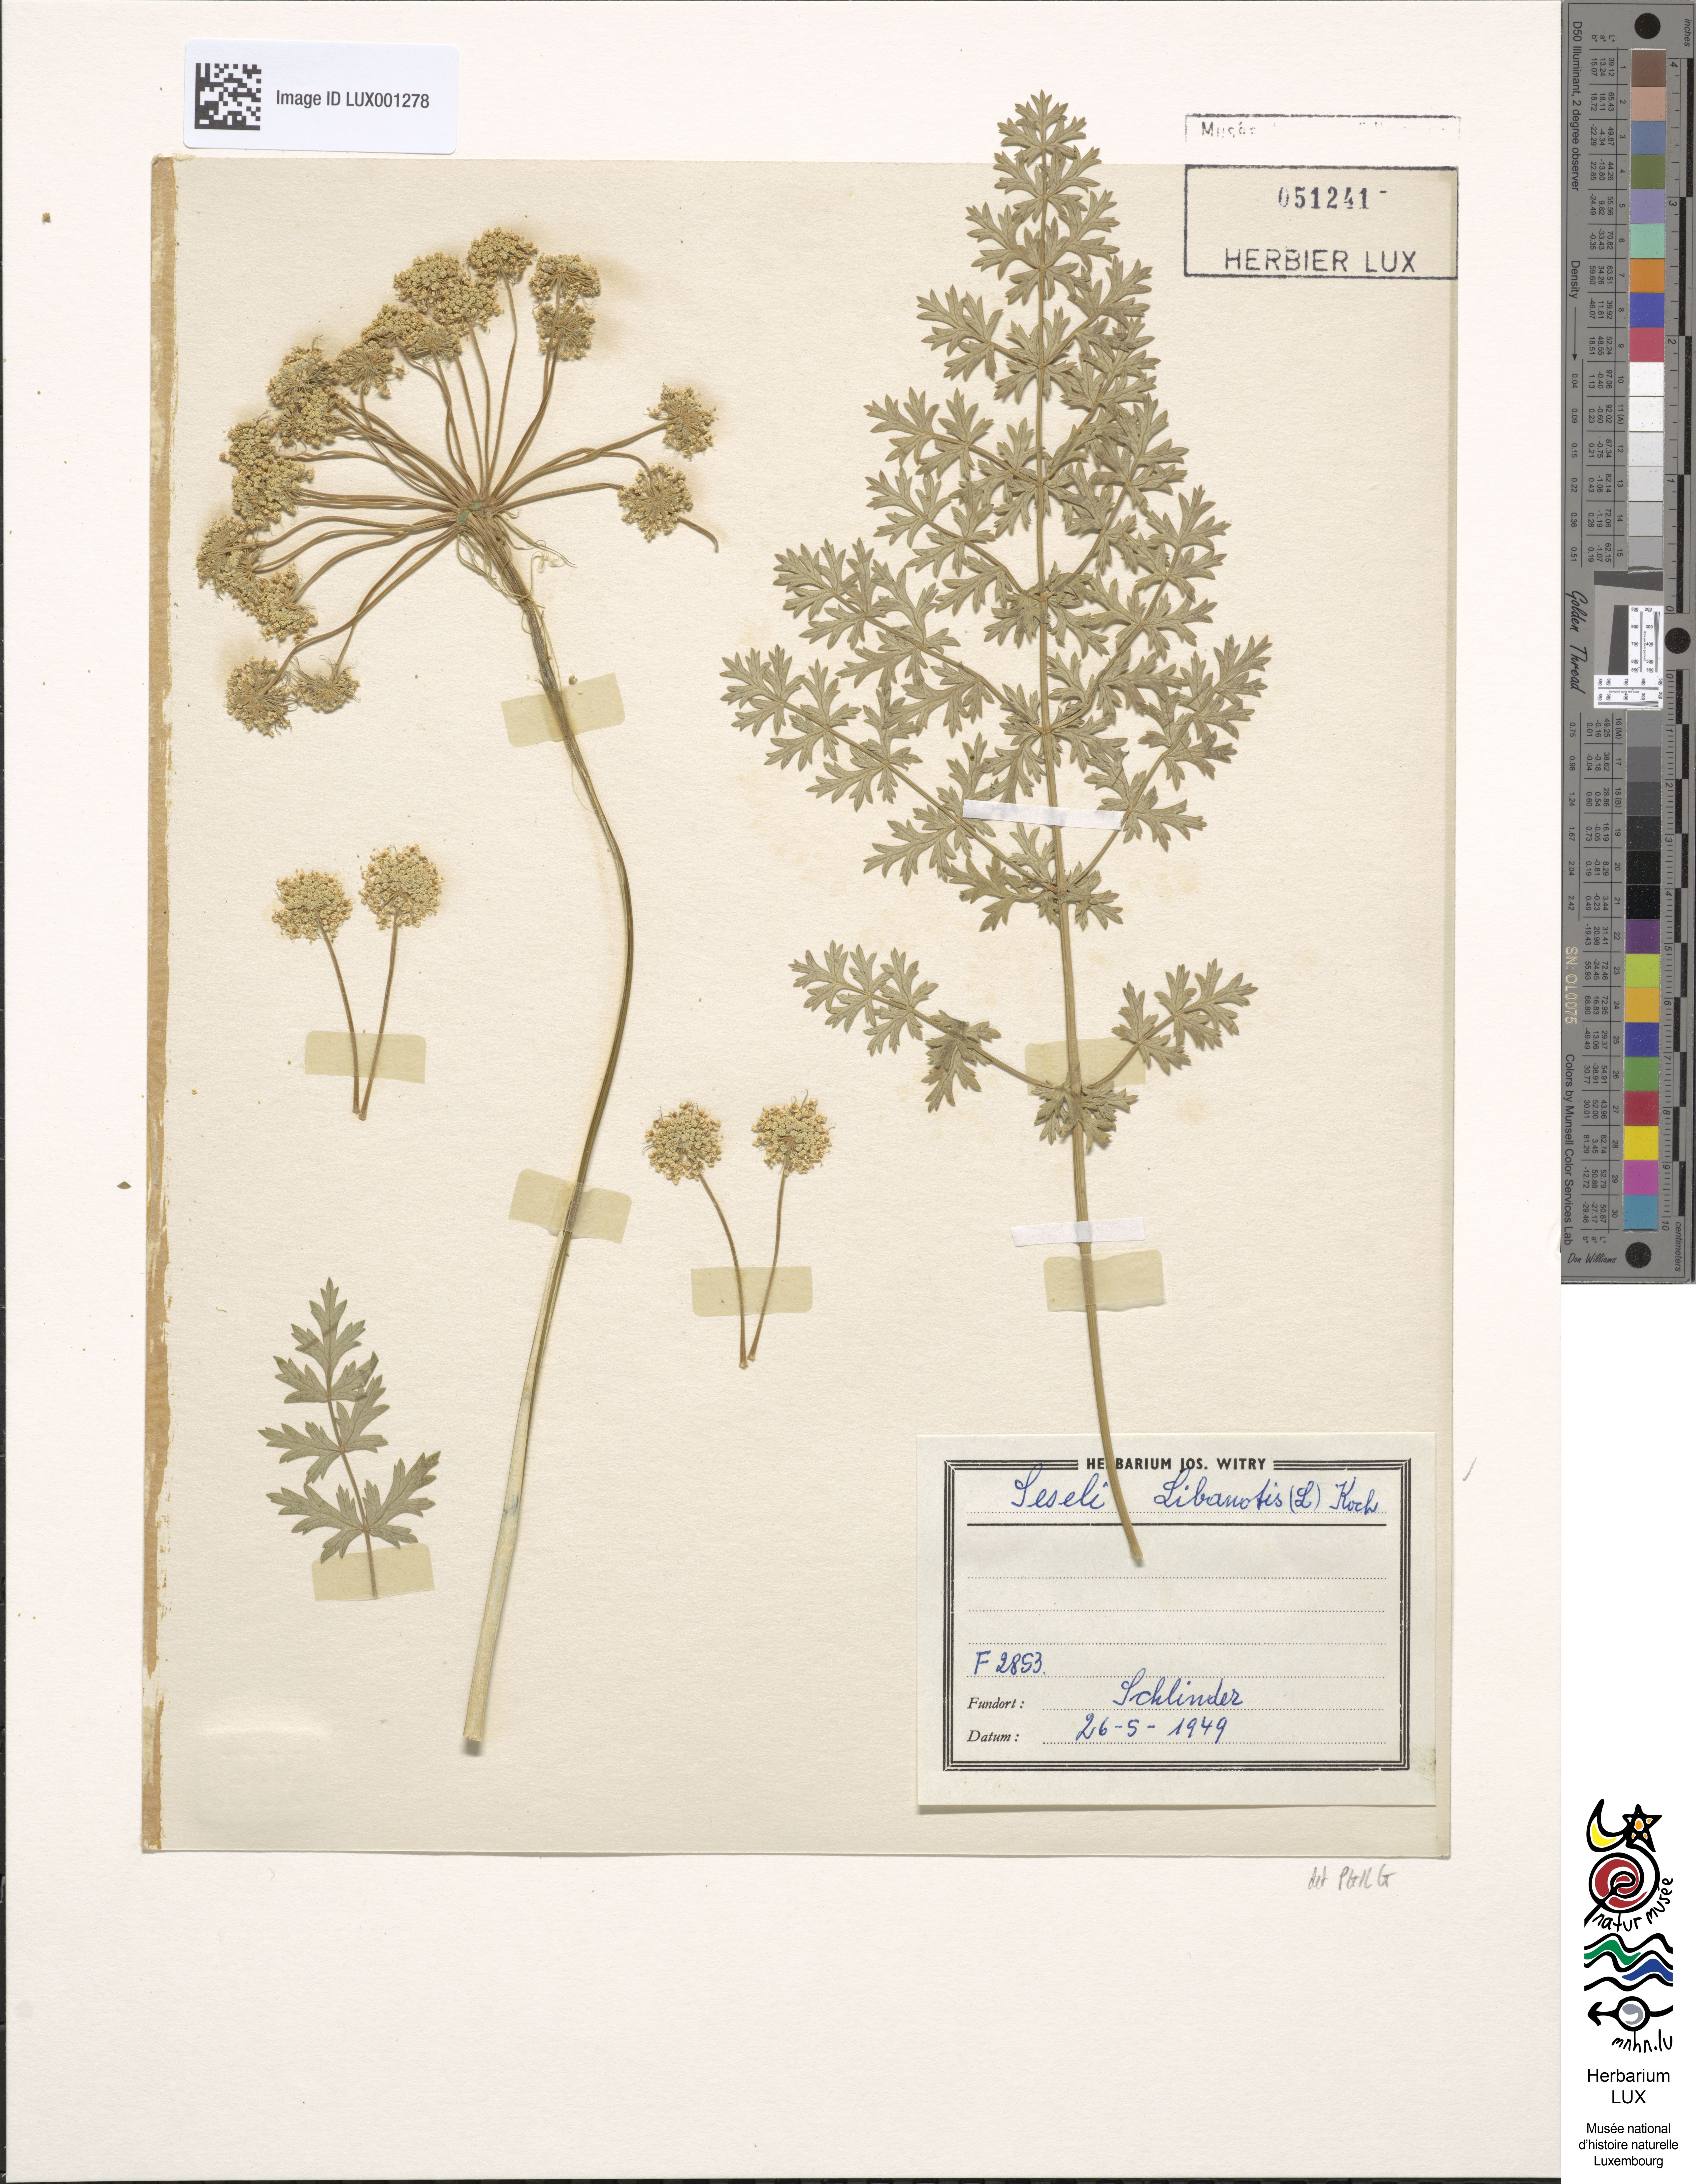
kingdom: Plantae
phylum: Tracheophyta
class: Magnoliopsida
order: Apiales
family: Apiaceae
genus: Seseli
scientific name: Seseli libanotis
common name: Mooncarrot
